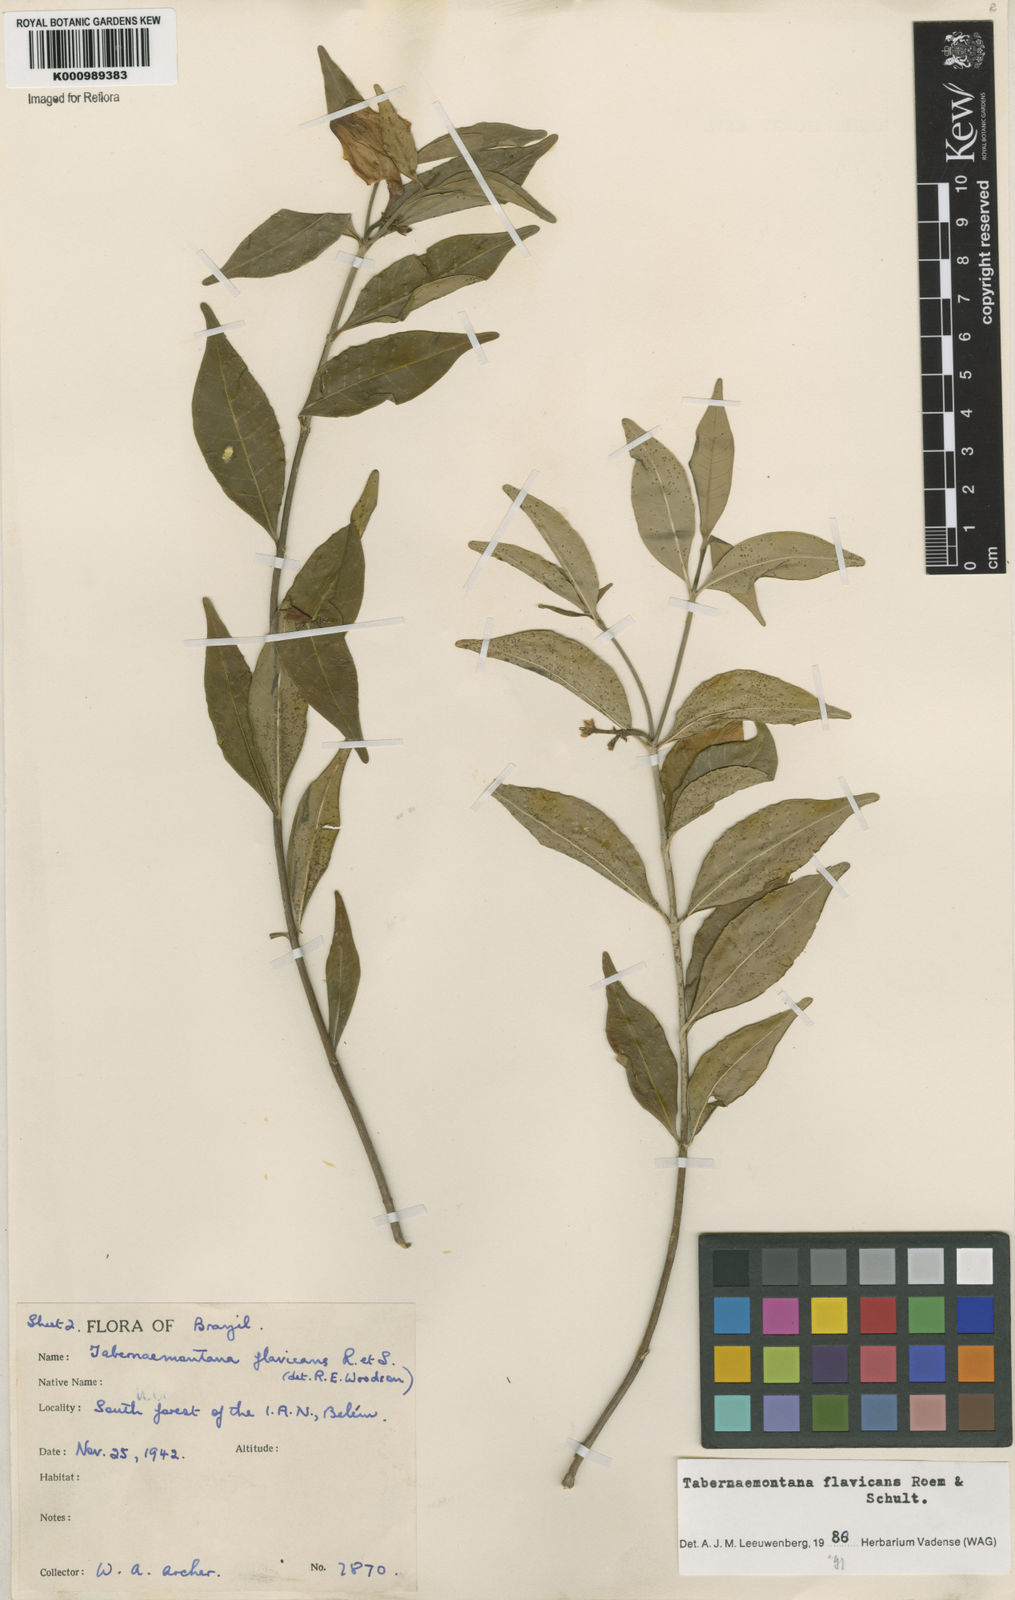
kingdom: Plantae
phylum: Tracheophyta
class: Magnoliopsida
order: Gentianales
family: Apocynaceae
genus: Tabernaemontana
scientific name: Tabernaemontana flavicans
